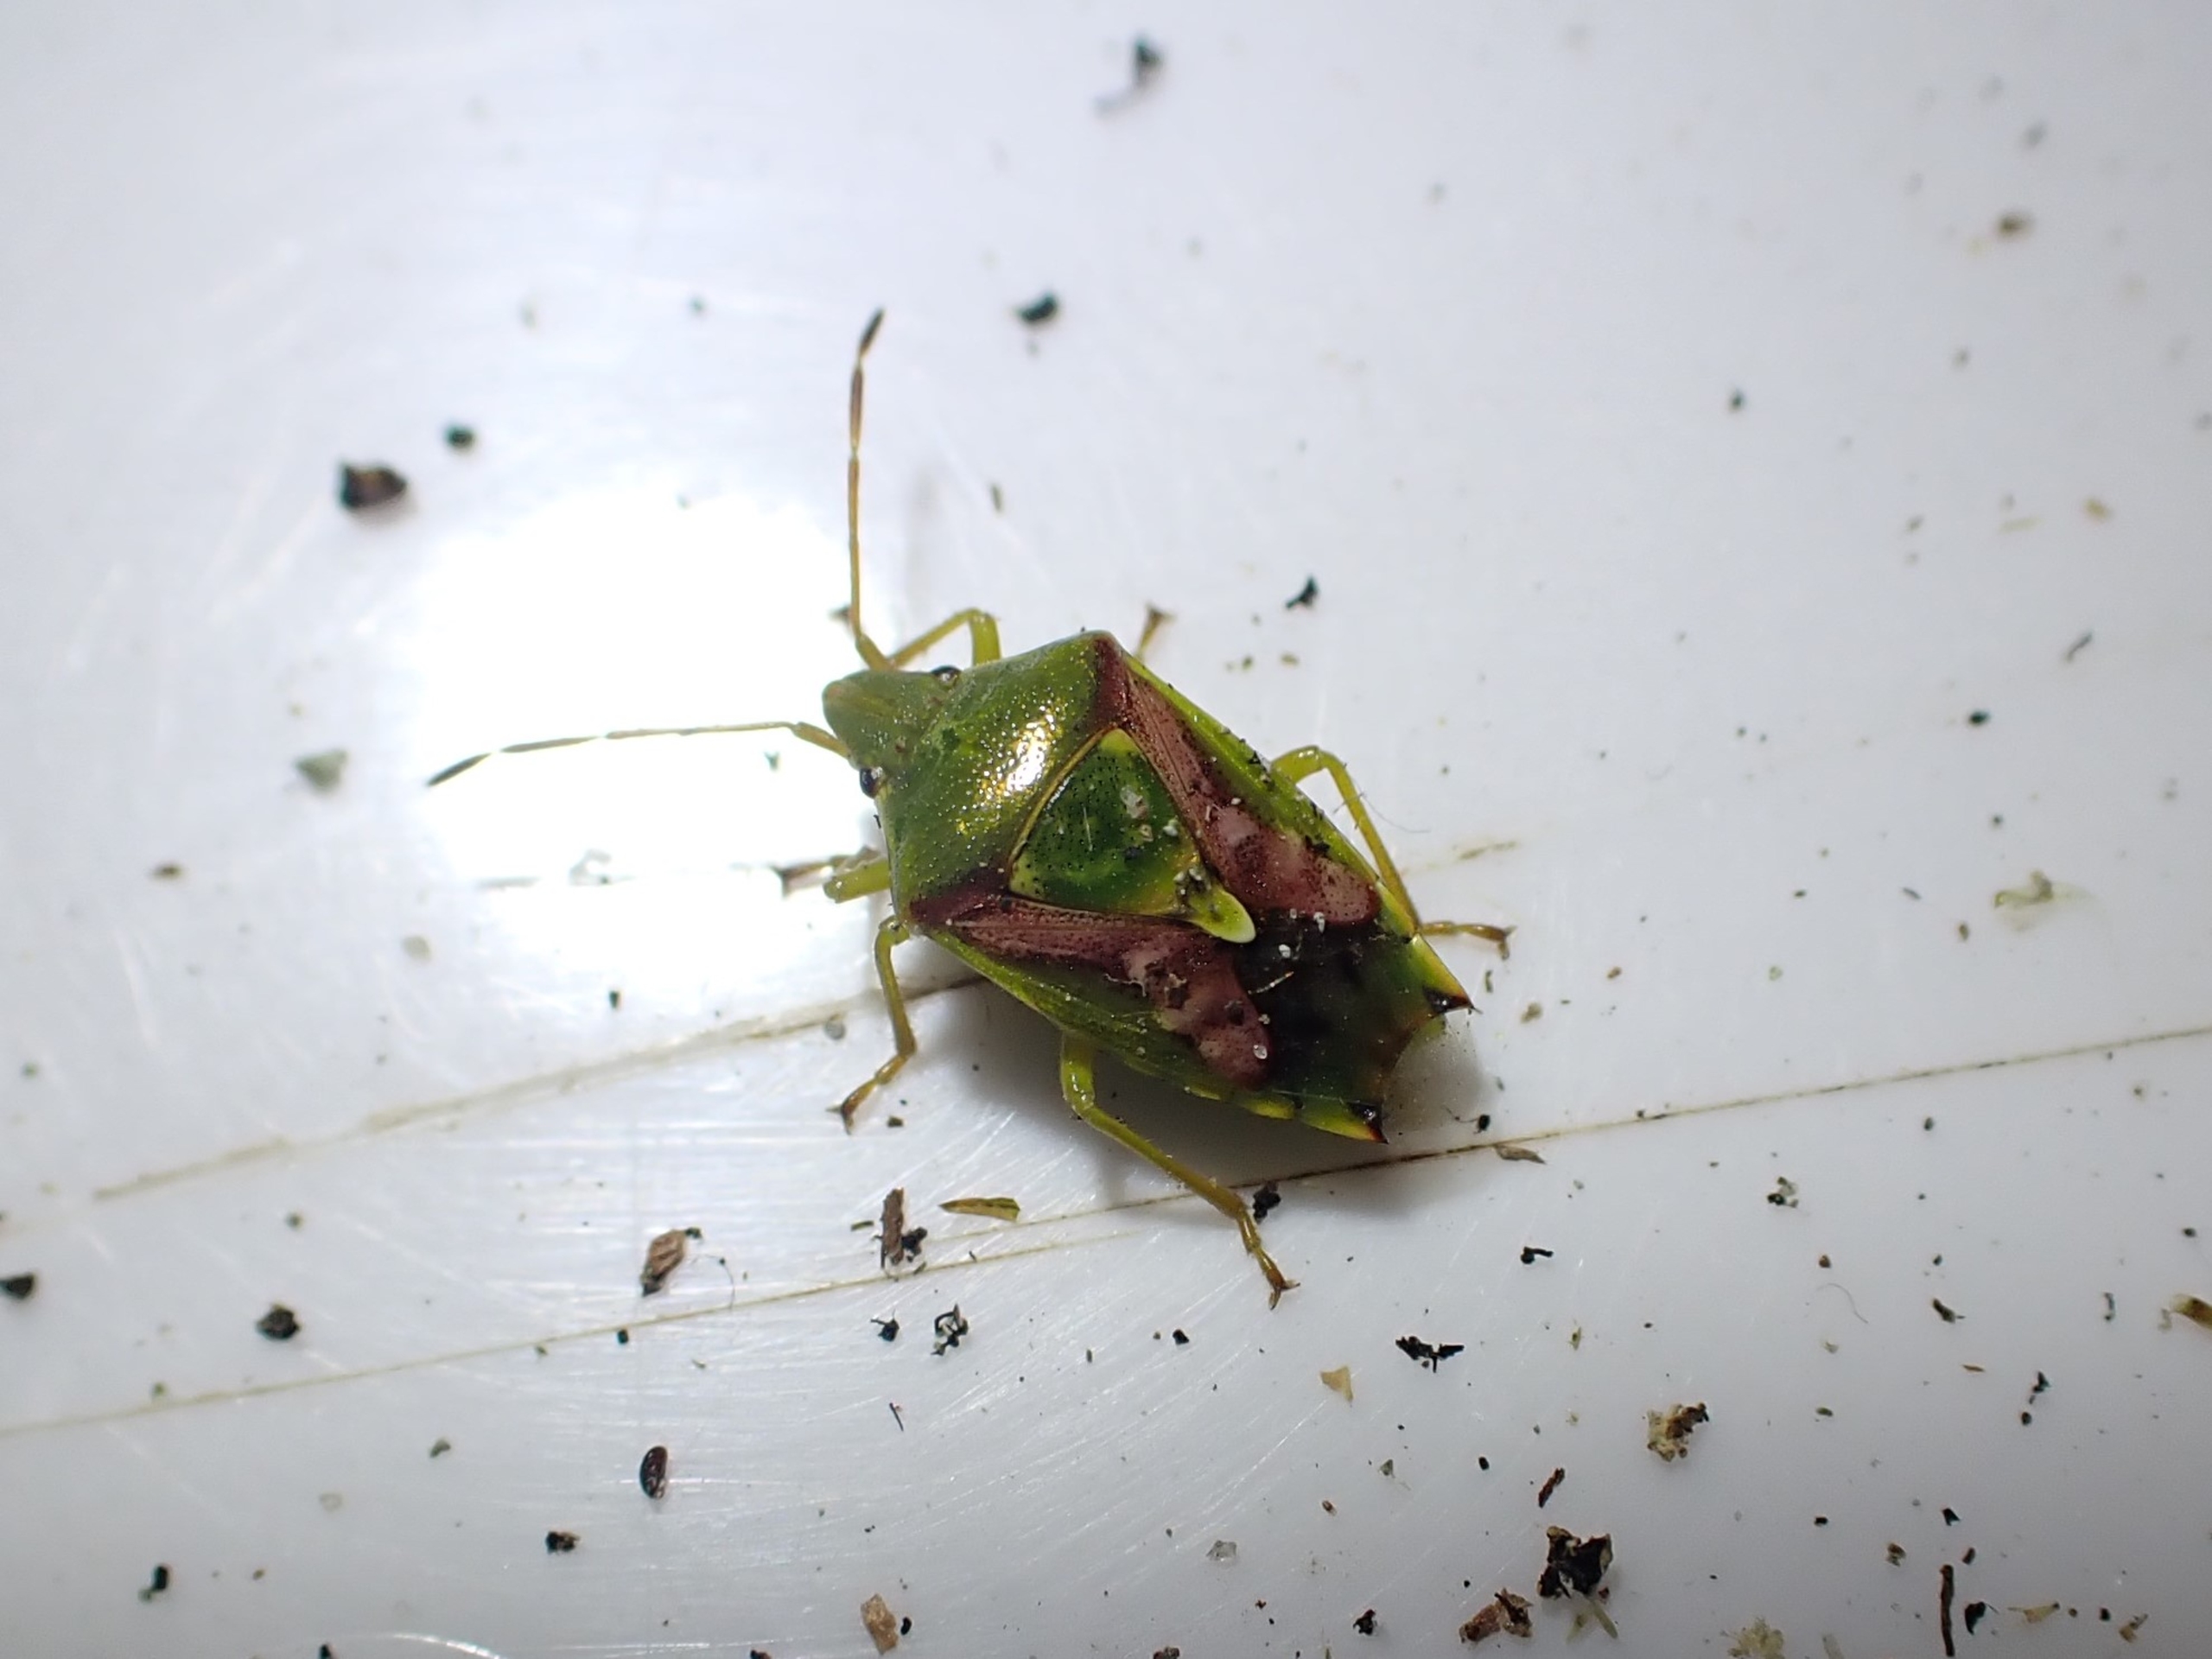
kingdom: Animalia
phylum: Arthropoda
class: Insecta
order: Hemiptera
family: Acanthosomatidae
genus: Cyphostethus
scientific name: Cyphostethus tristriatus
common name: Slank enebærtæge
